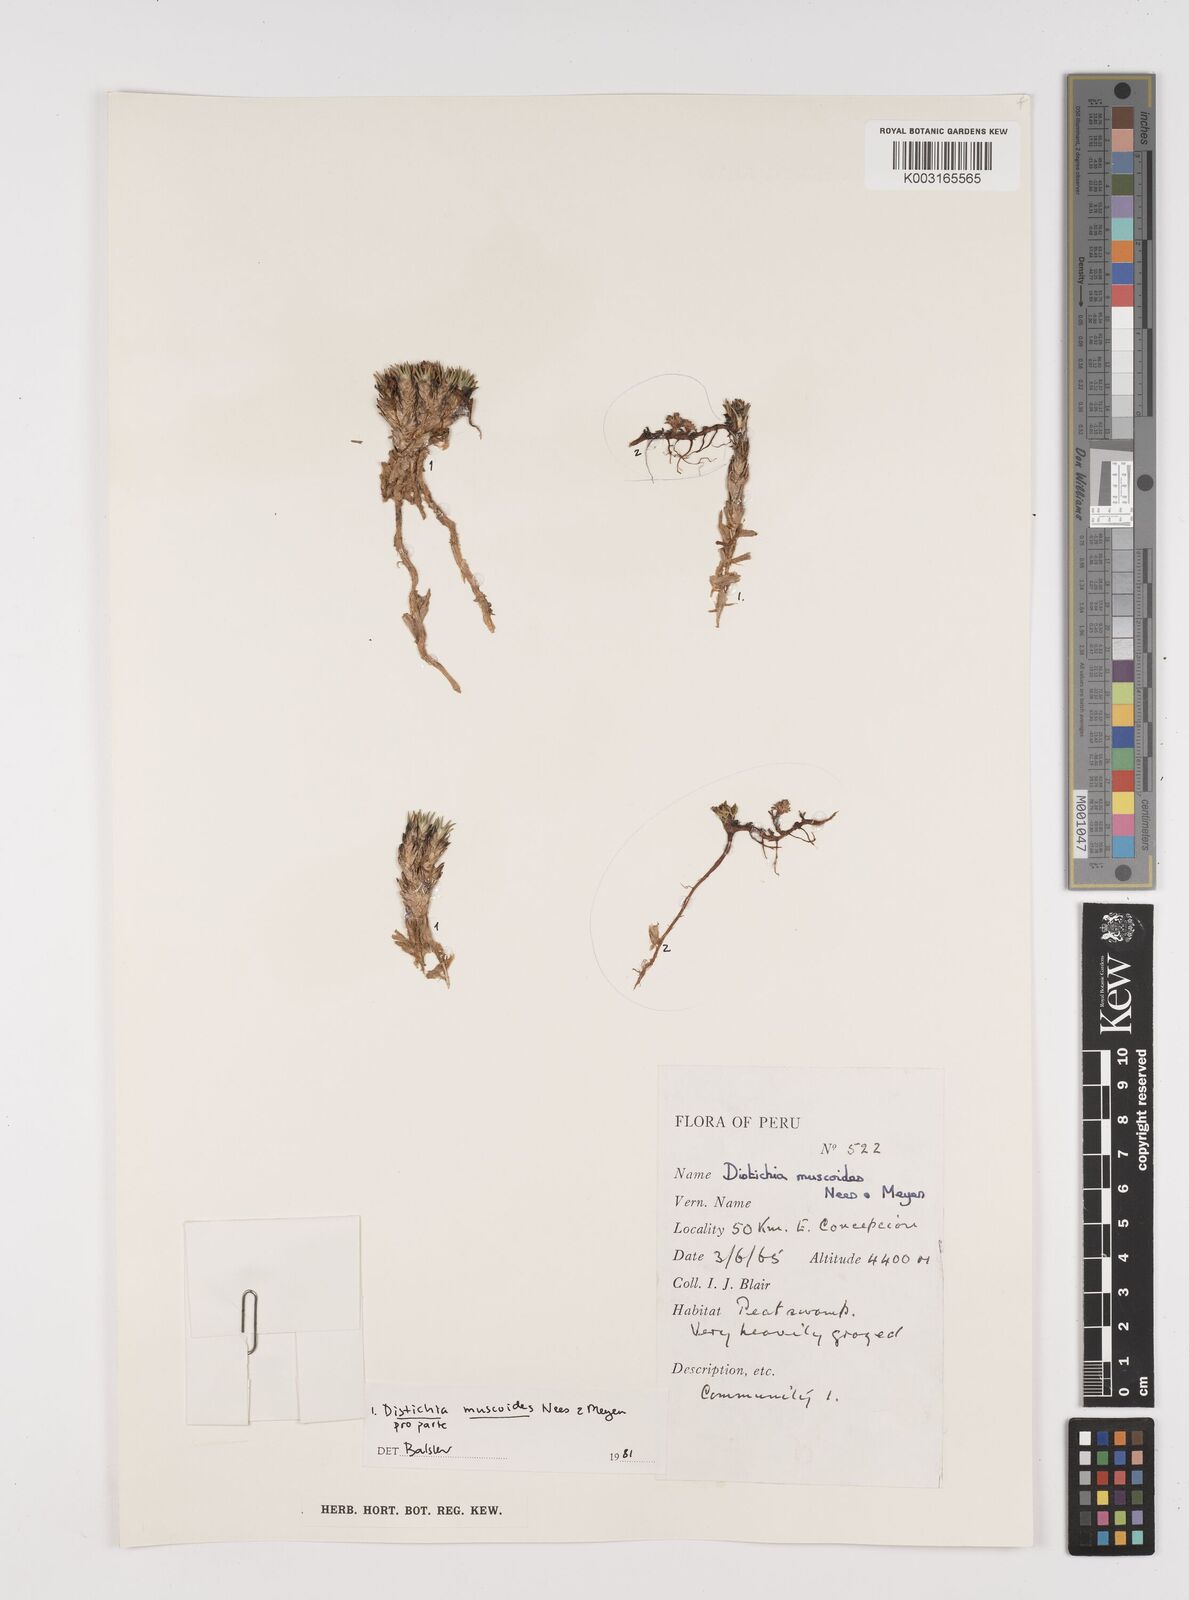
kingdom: Plantae
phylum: Tracheophyta
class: Liliopsida
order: Poales
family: Juncaceae
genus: Distichia
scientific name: Distichia muscoides
